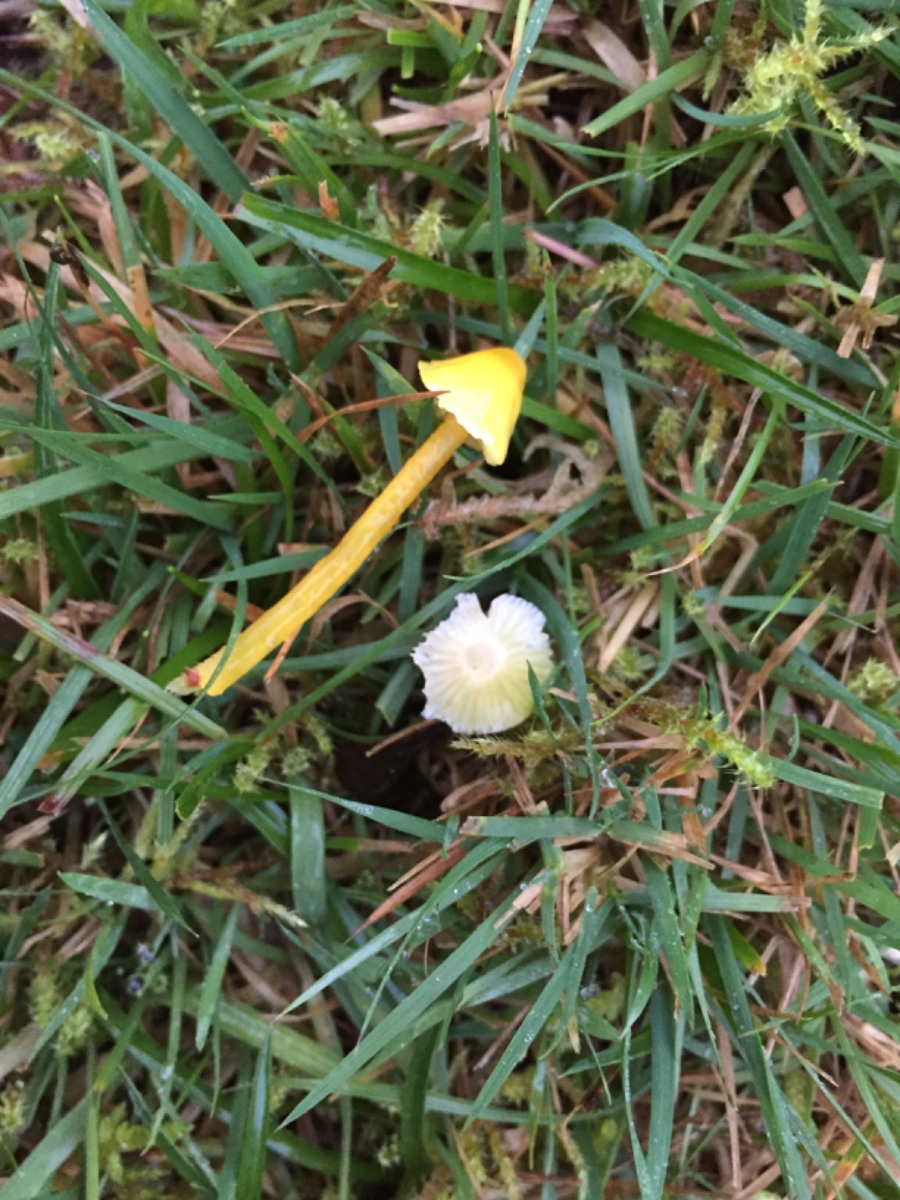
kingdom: Fungi
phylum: Basidiomycota
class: Agaricomycetes
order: Agaricales
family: Hygrophoraceae
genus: Hygrocybe
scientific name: Hygrocybe glutinipes
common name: slimstokket vokshat
